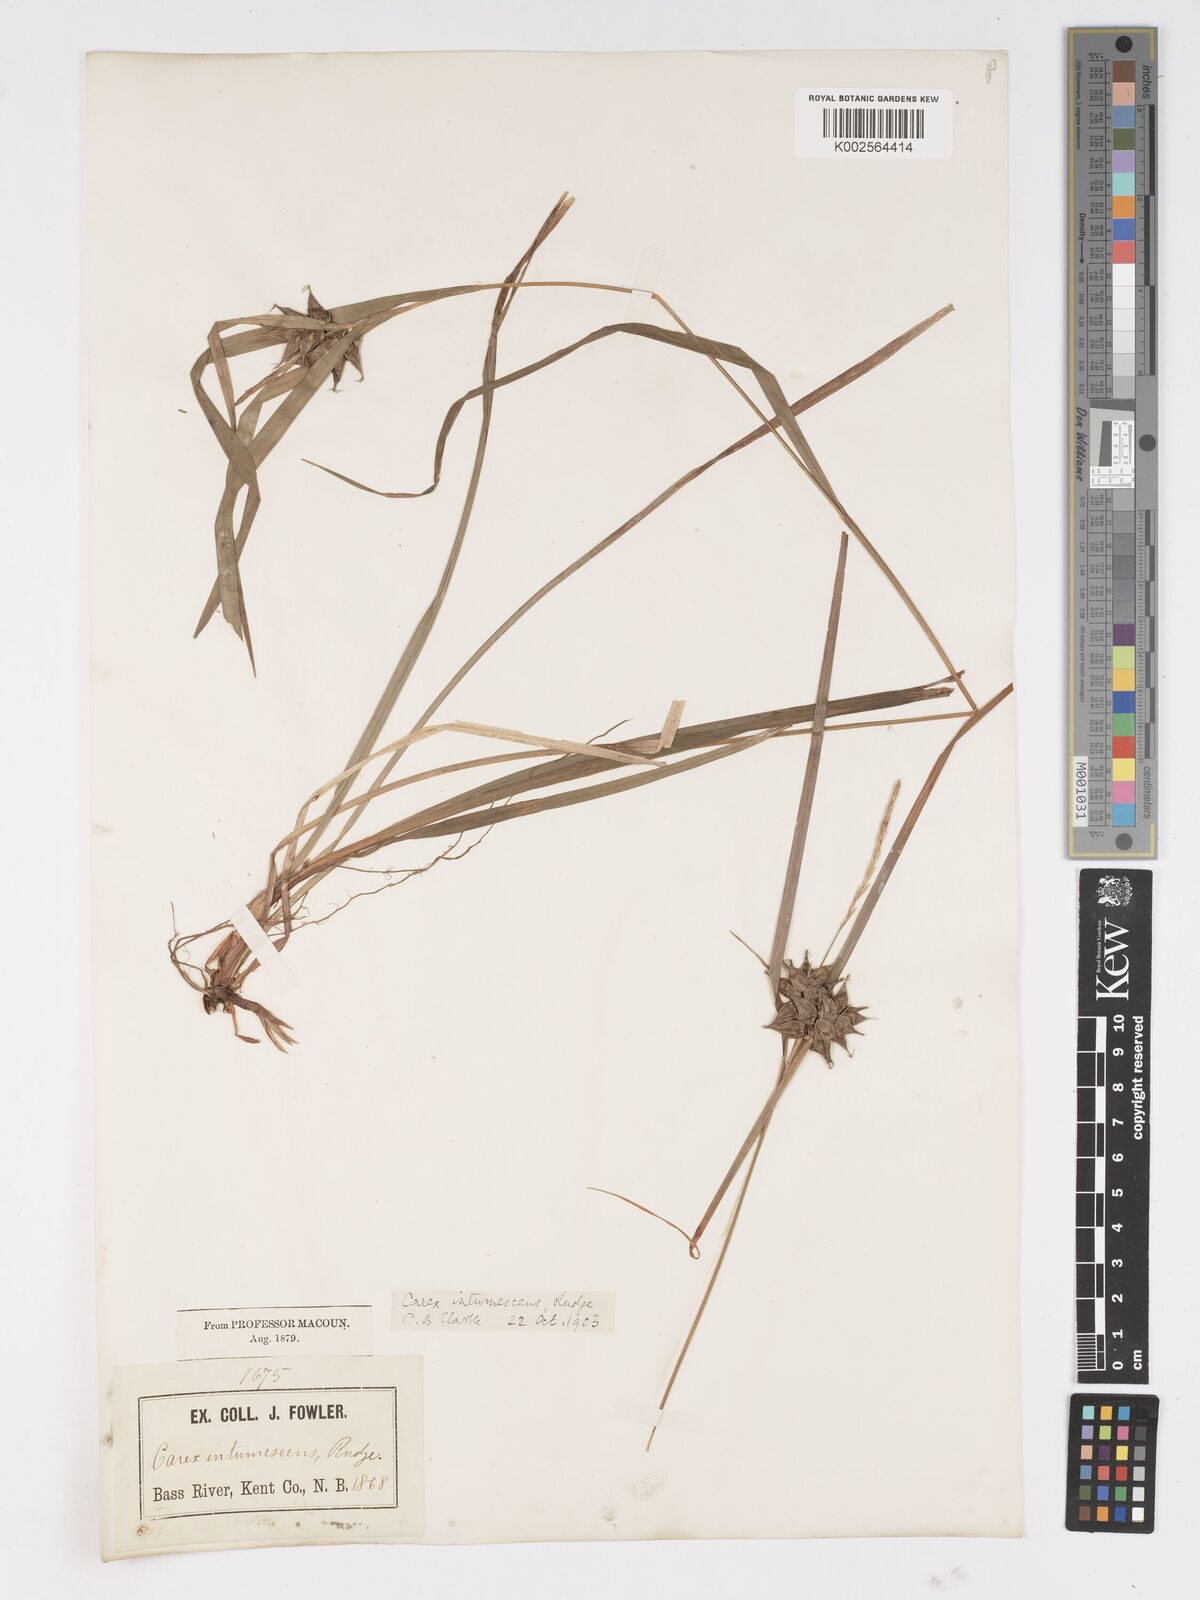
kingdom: Plantae
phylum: Tracheophyta
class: Liliopsida
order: Poales
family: Cyperaceae
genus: Carex
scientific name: Carex intumescens
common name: Greater bladder sedge
